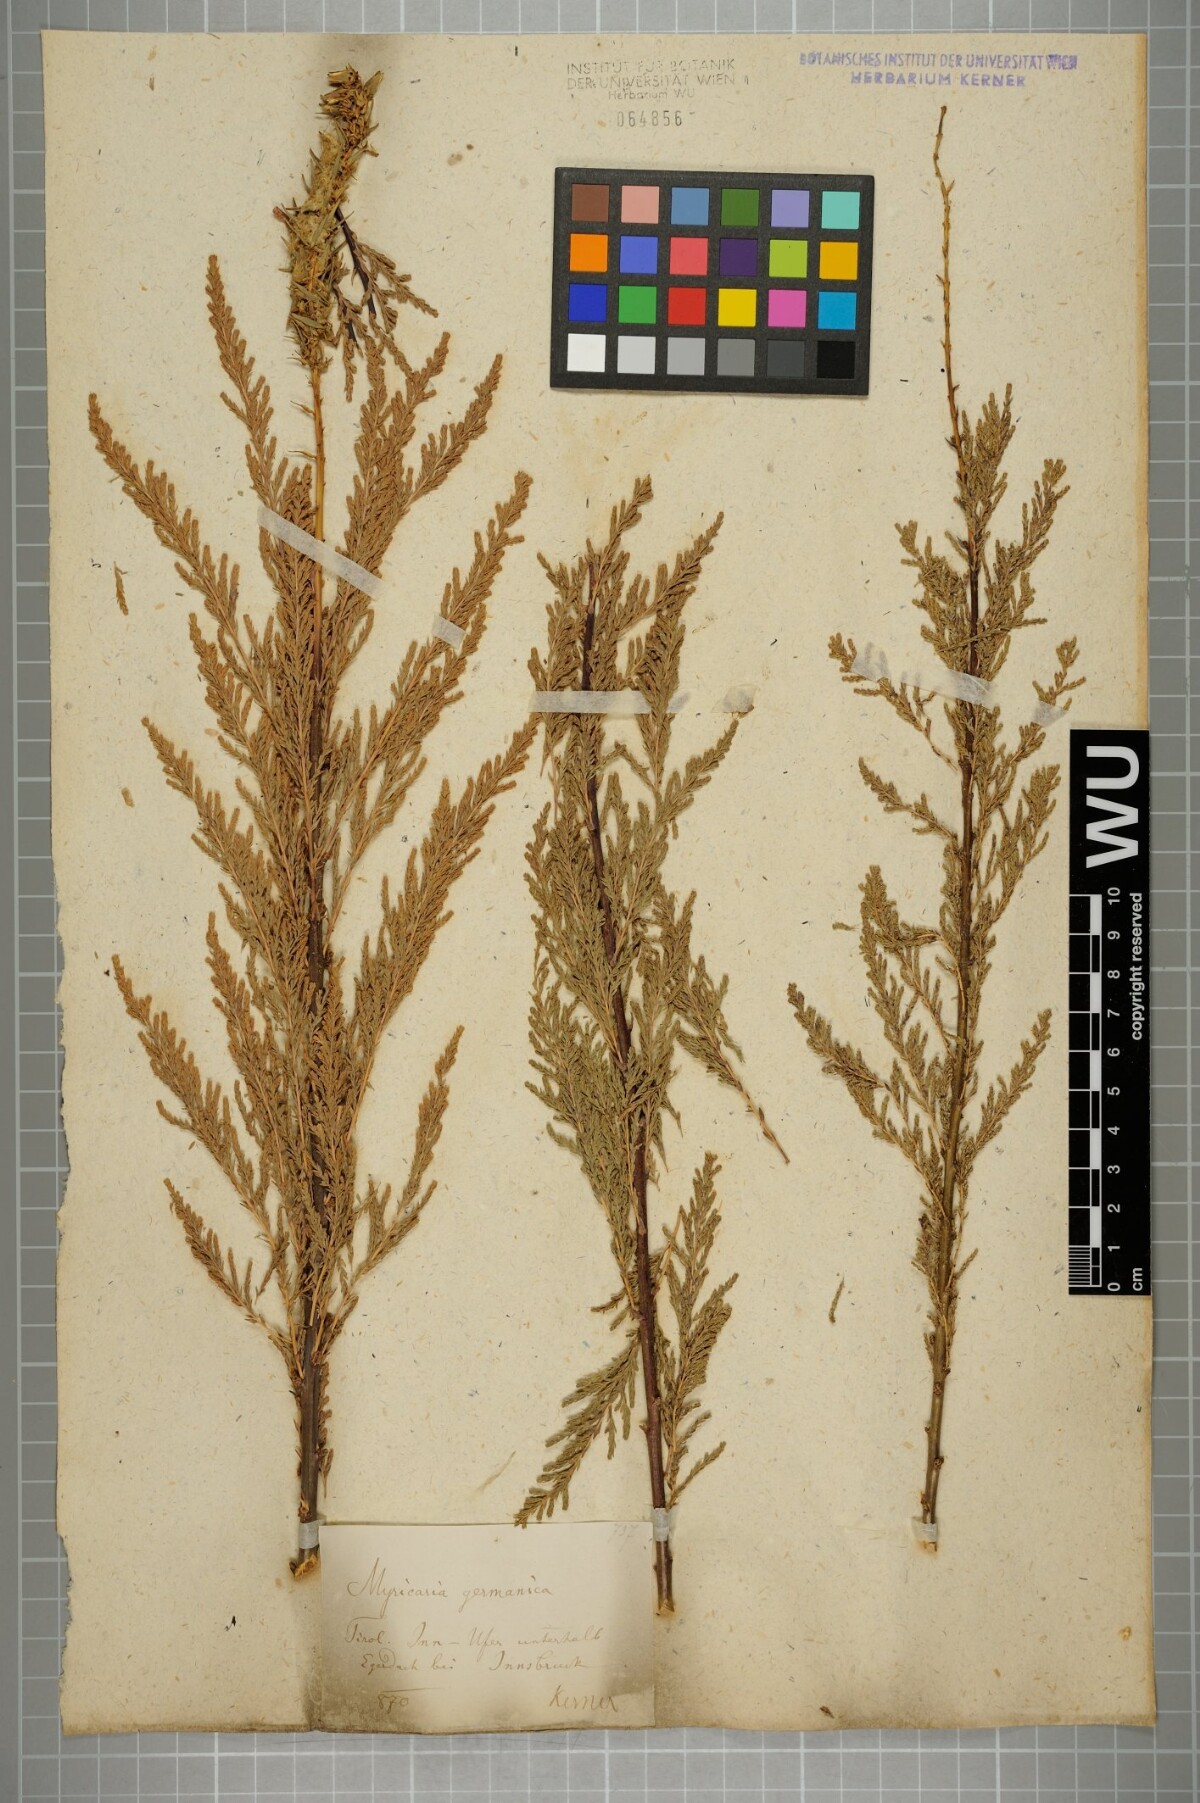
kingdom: Plantae
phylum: Tracheophyta
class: Magnoliopsida
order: Caryophyllales
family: Tamaricaceae
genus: Myricaria
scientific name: Myricaria germanica
